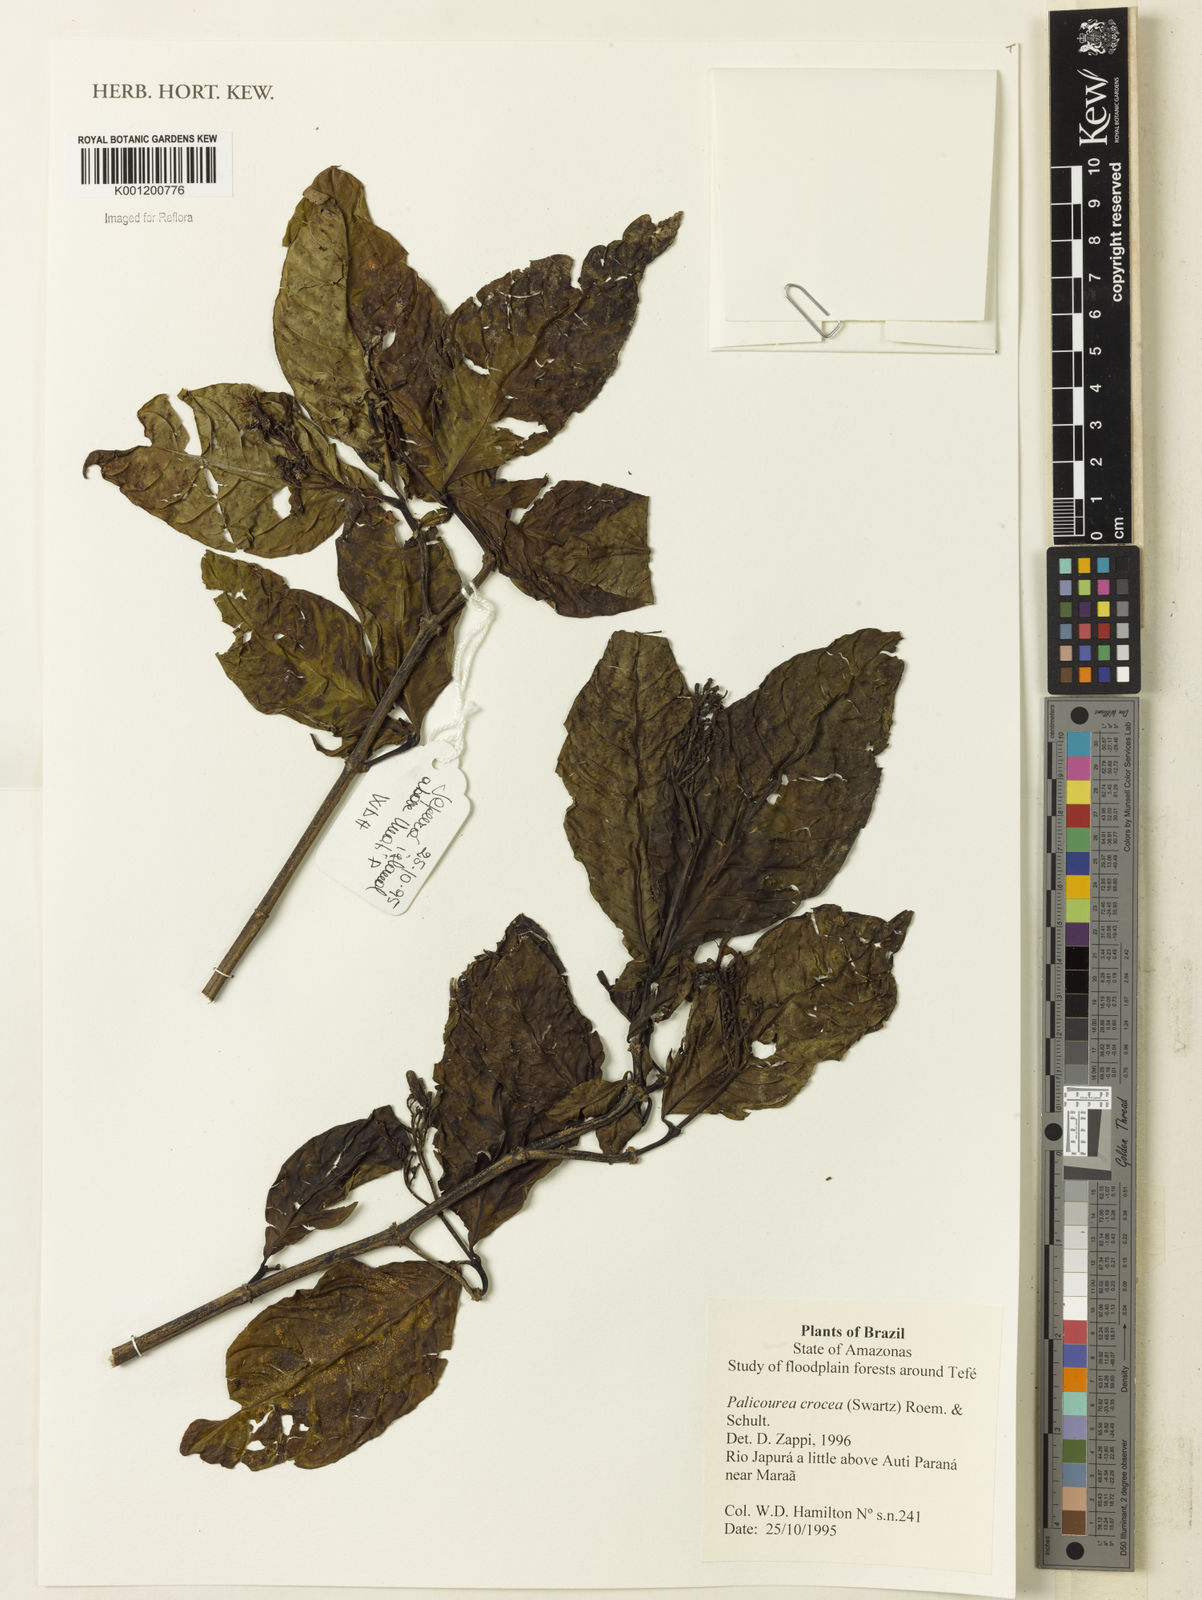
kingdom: Plantae
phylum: Tracheophyta
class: Magnoliopsida
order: Gentianales
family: Rubiaceae
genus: Palicourea
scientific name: Palicourea crocea
